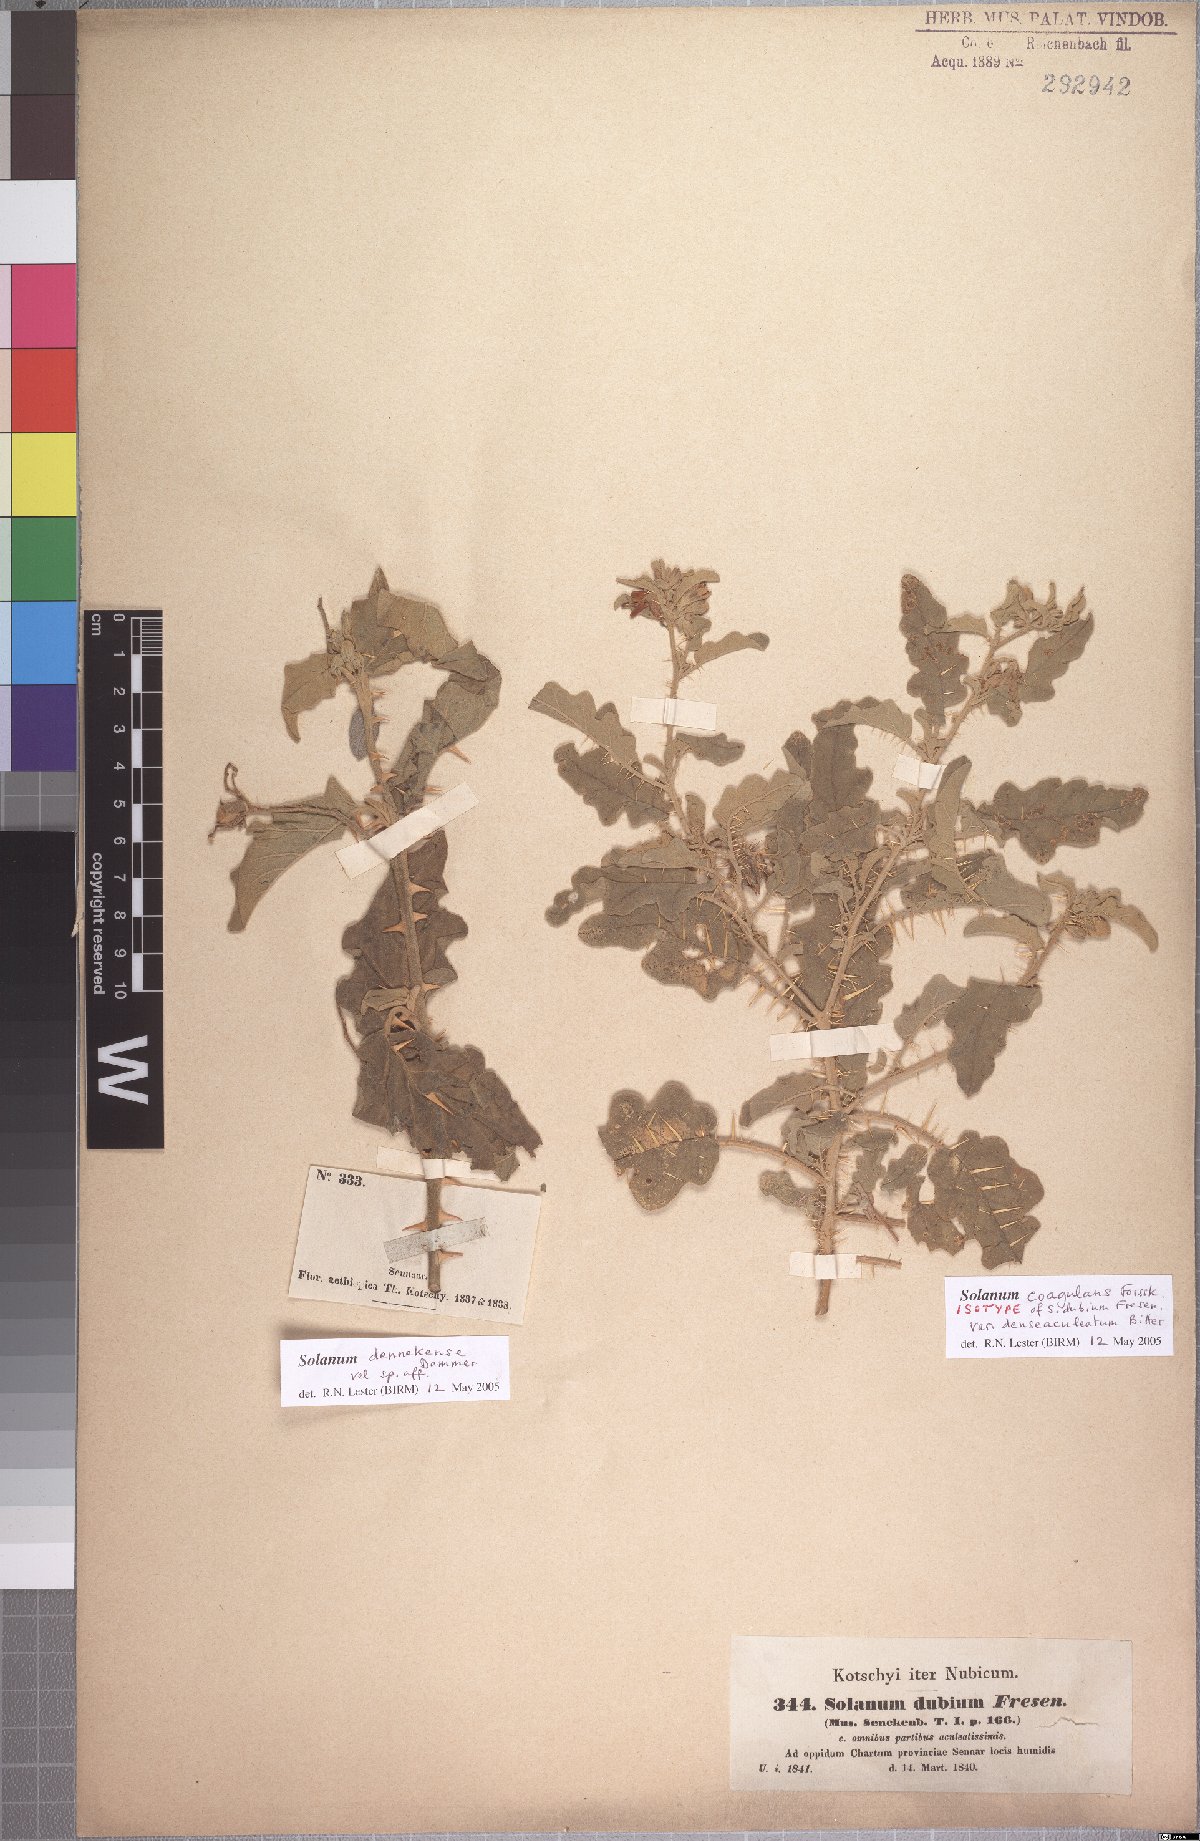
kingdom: Plantae
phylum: Tracheophyta
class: Magnoliopsida
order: Solanales
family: Solanaceae
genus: Solanum
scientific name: Solanum coagulans
